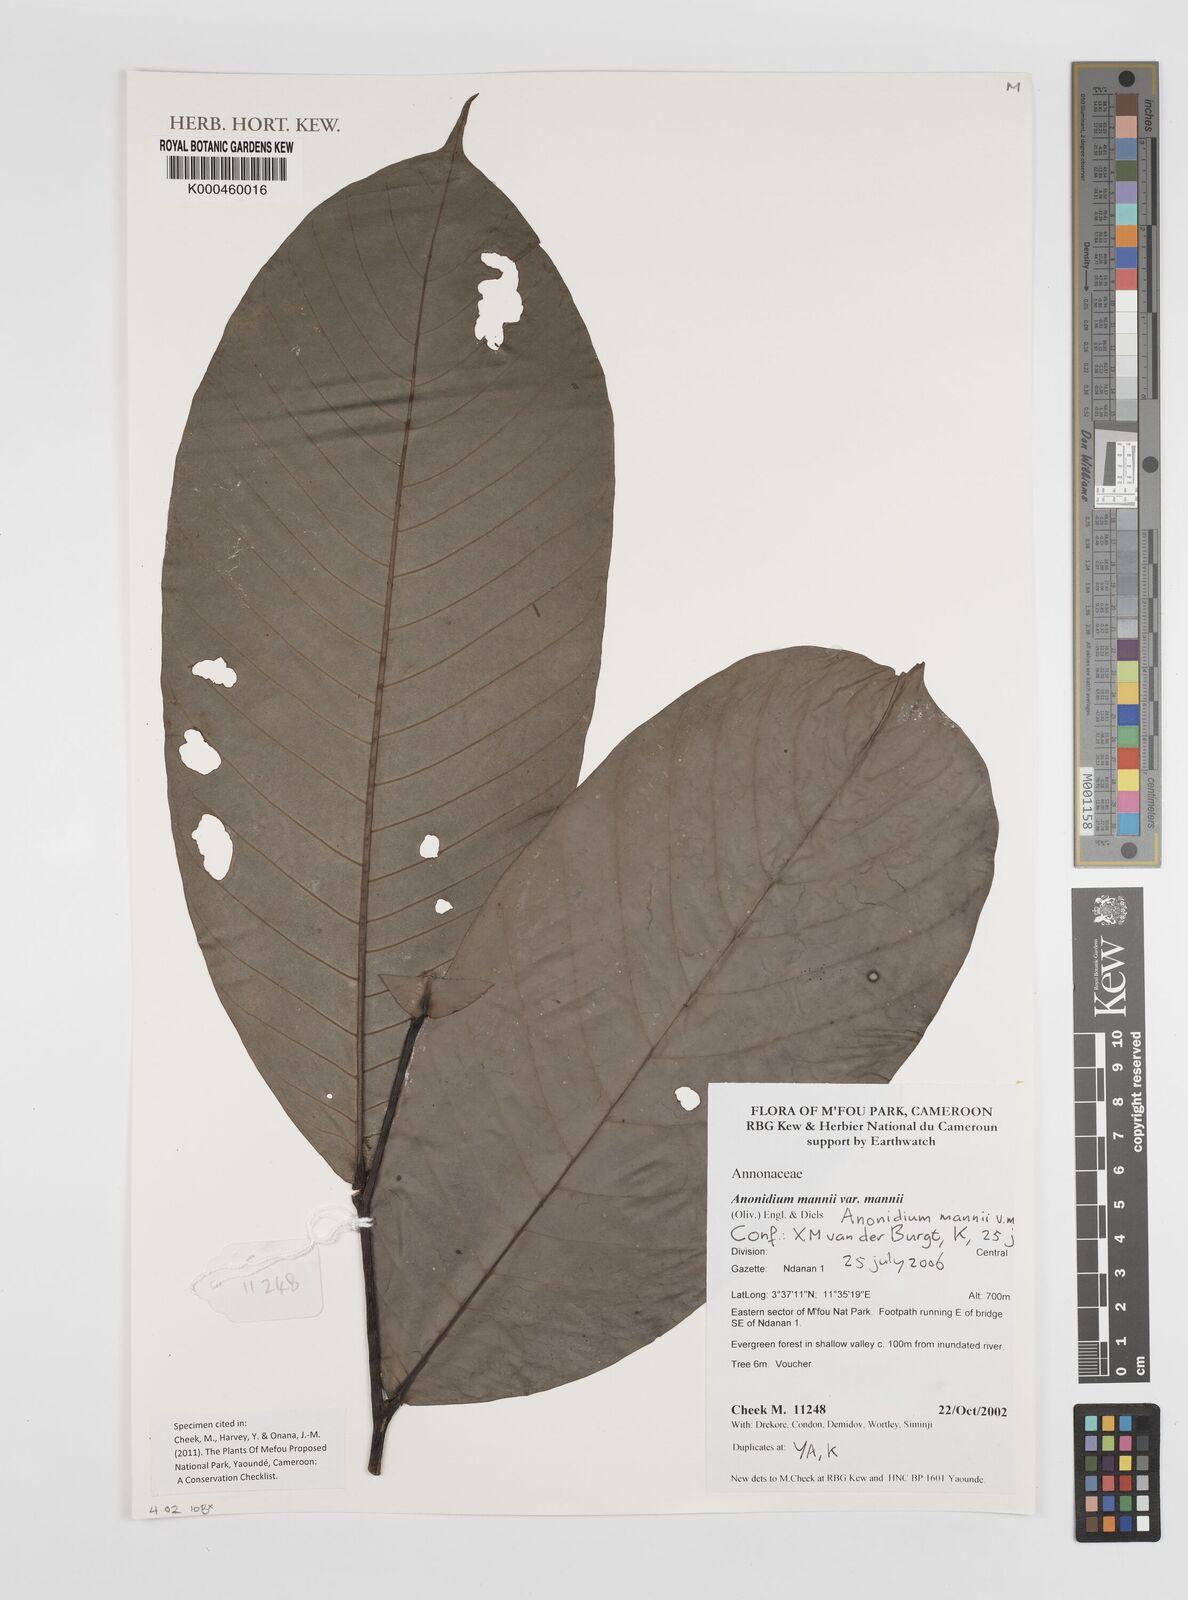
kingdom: Plantae
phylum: Tracheophyta
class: Magnoliopsida
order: Magnoliales
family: Annonaceae
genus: Anonidium
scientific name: Anonidium mannii
